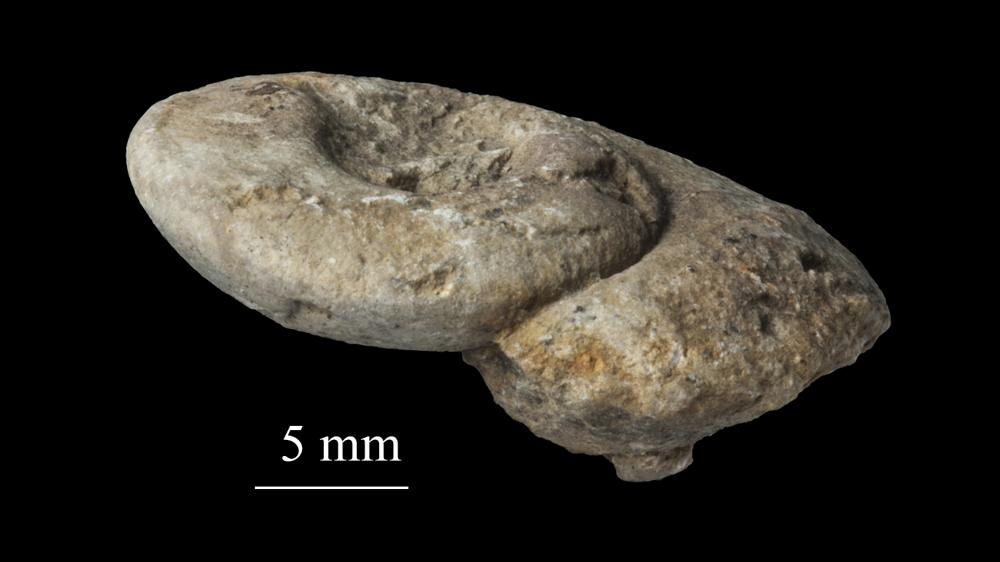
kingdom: Animalia
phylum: Mollusca
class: Gastropoda
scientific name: Gastropoda
